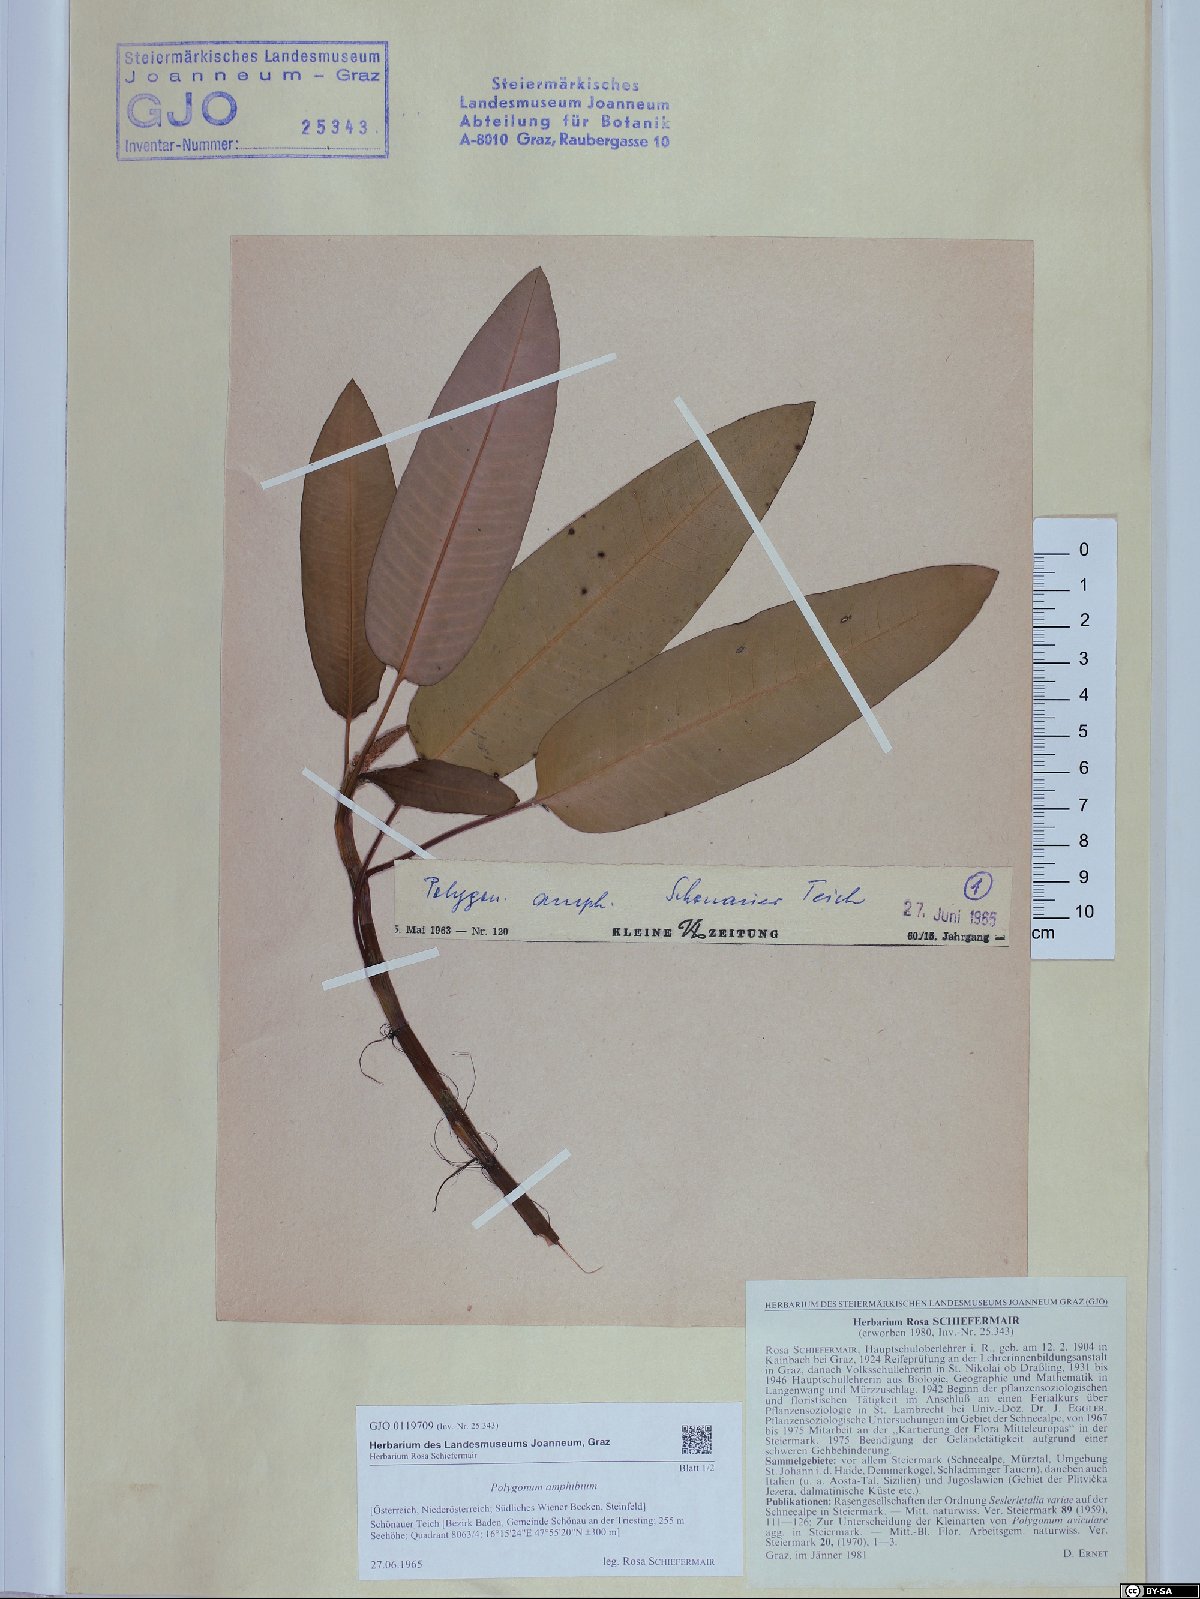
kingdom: Plantae
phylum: Tracheophyta
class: Magnoliopsida
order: Caryophyllales
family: Polygonaceae
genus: Persicaria
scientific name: Persicaria amphibia
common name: Amphibious bistort
